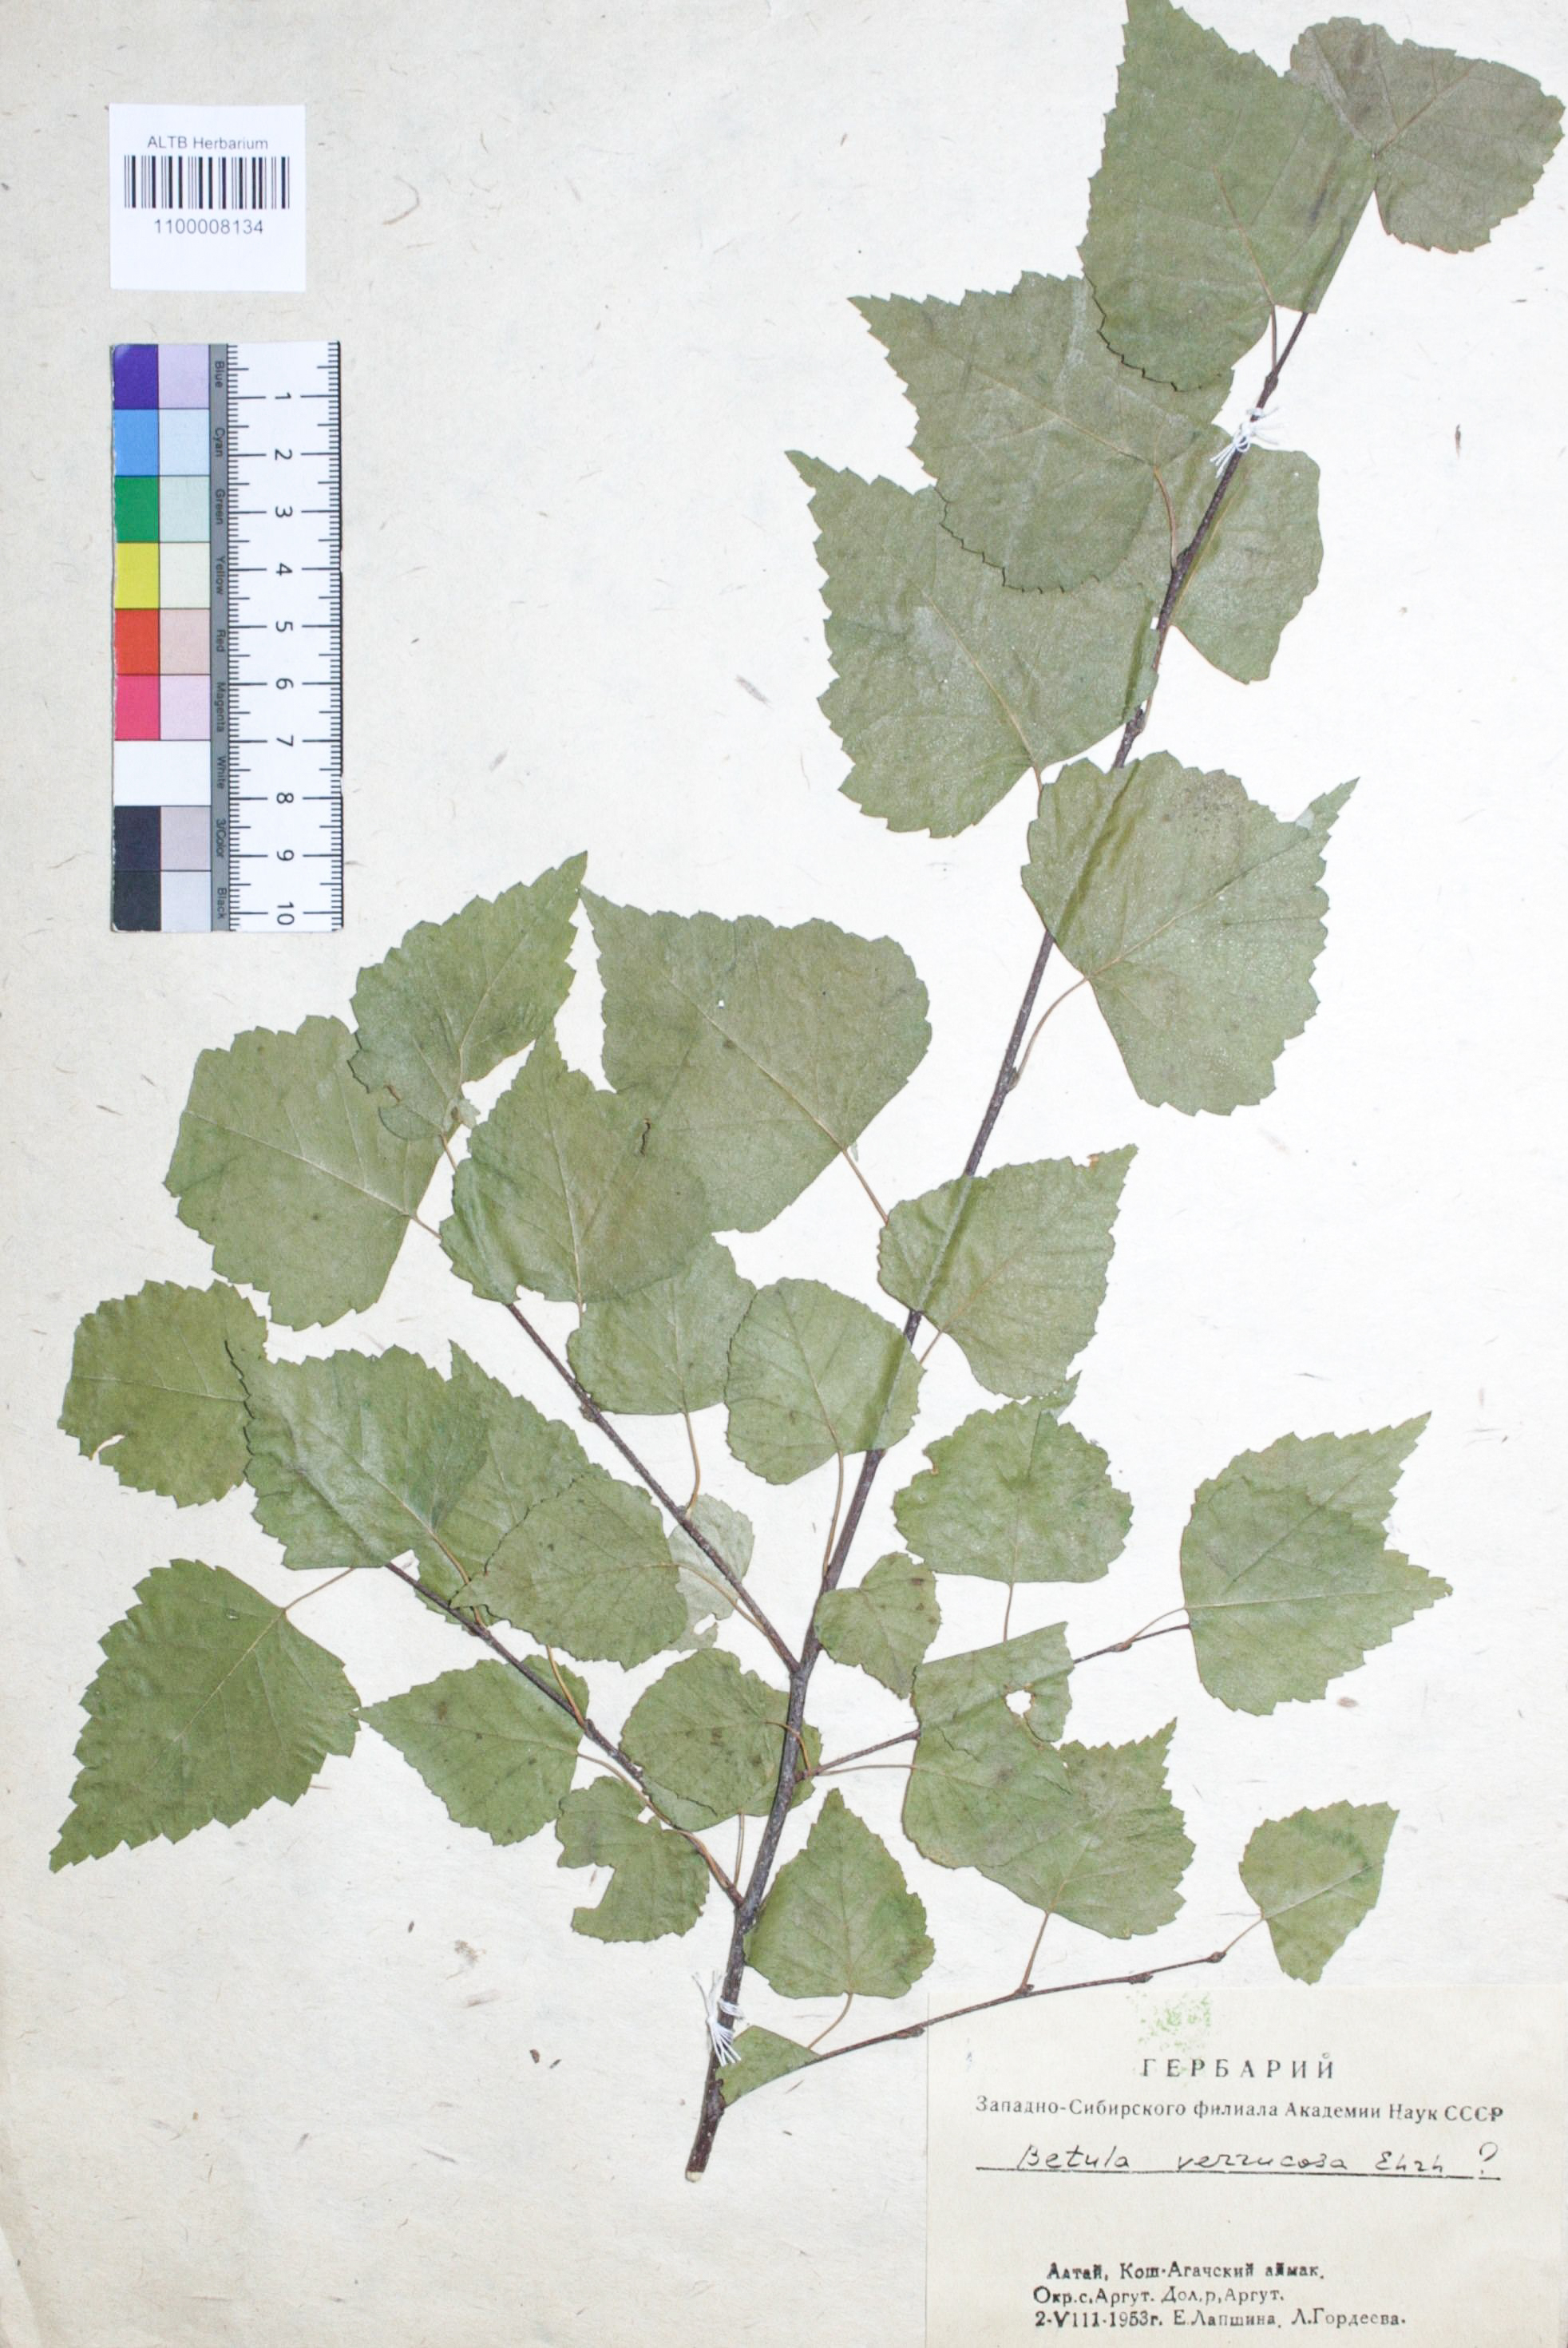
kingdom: Plantae
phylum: Tracheophyta
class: Magnoliopsida
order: Fagales
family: Betulaceae
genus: Betula
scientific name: Betula pendula
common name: Silver birch
